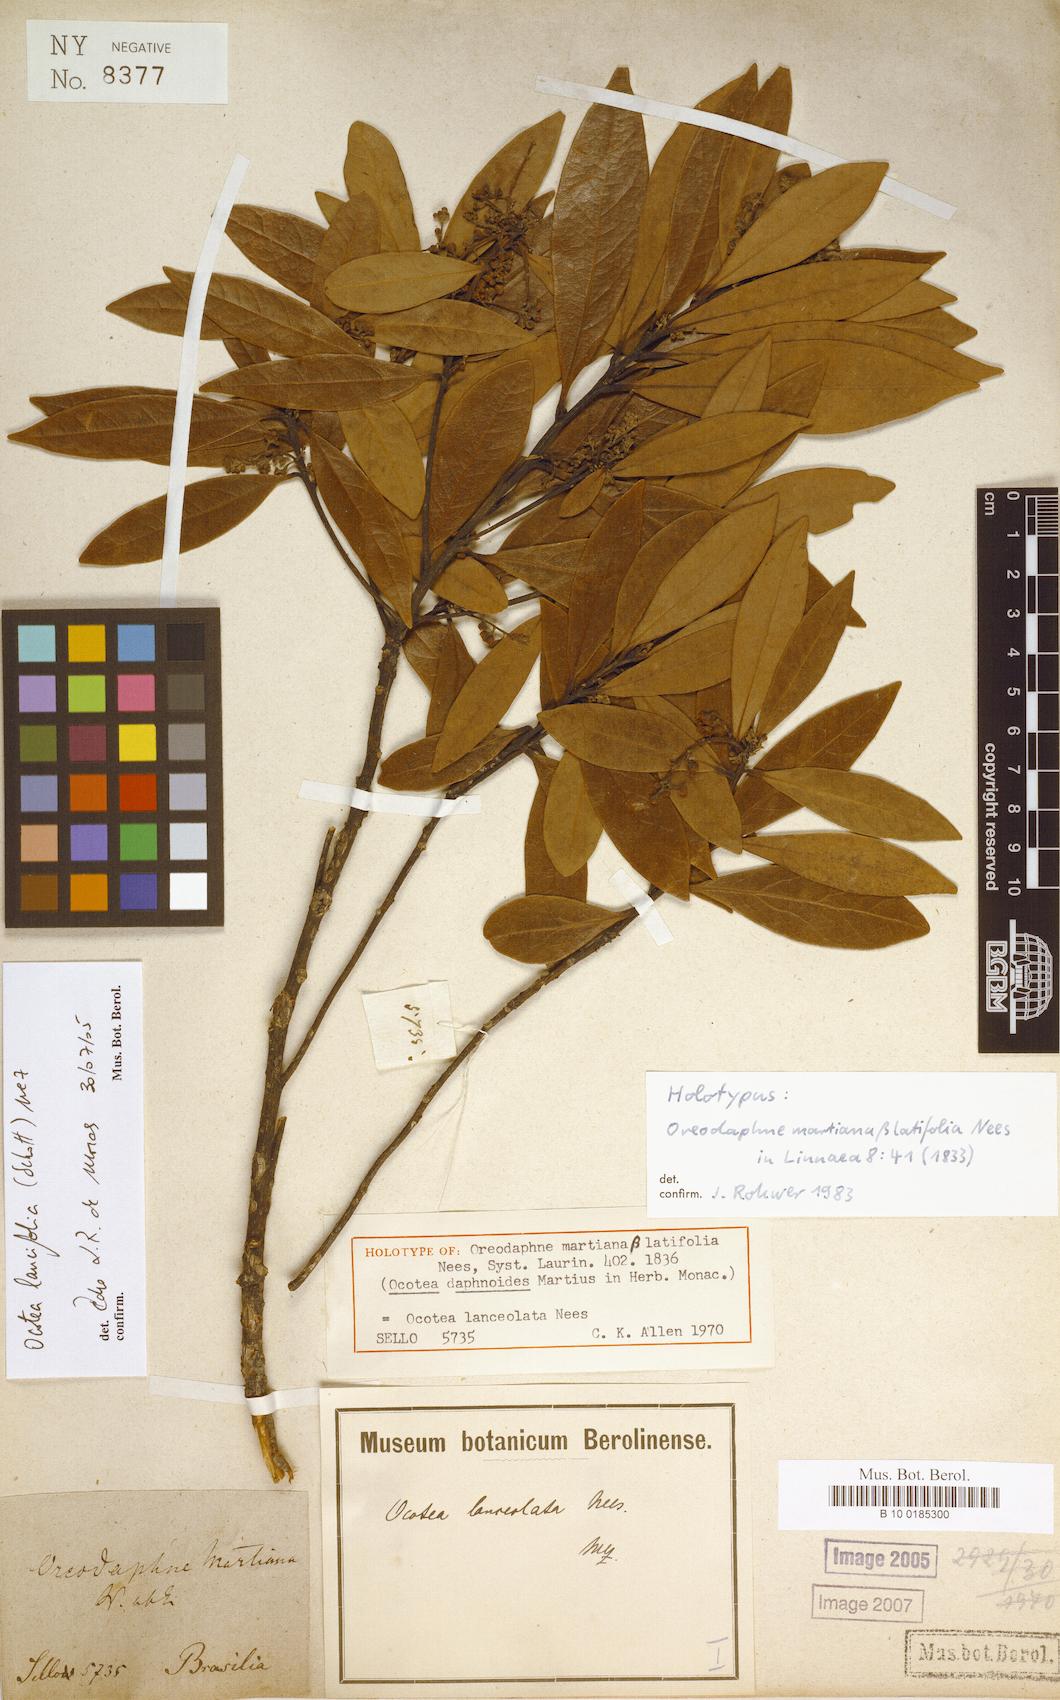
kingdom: Plantae
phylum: Tracheophyta
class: Magnoliopsida
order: Laurales
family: Lauraceae
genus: Ocotea
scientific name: Ocotea lancifolia
